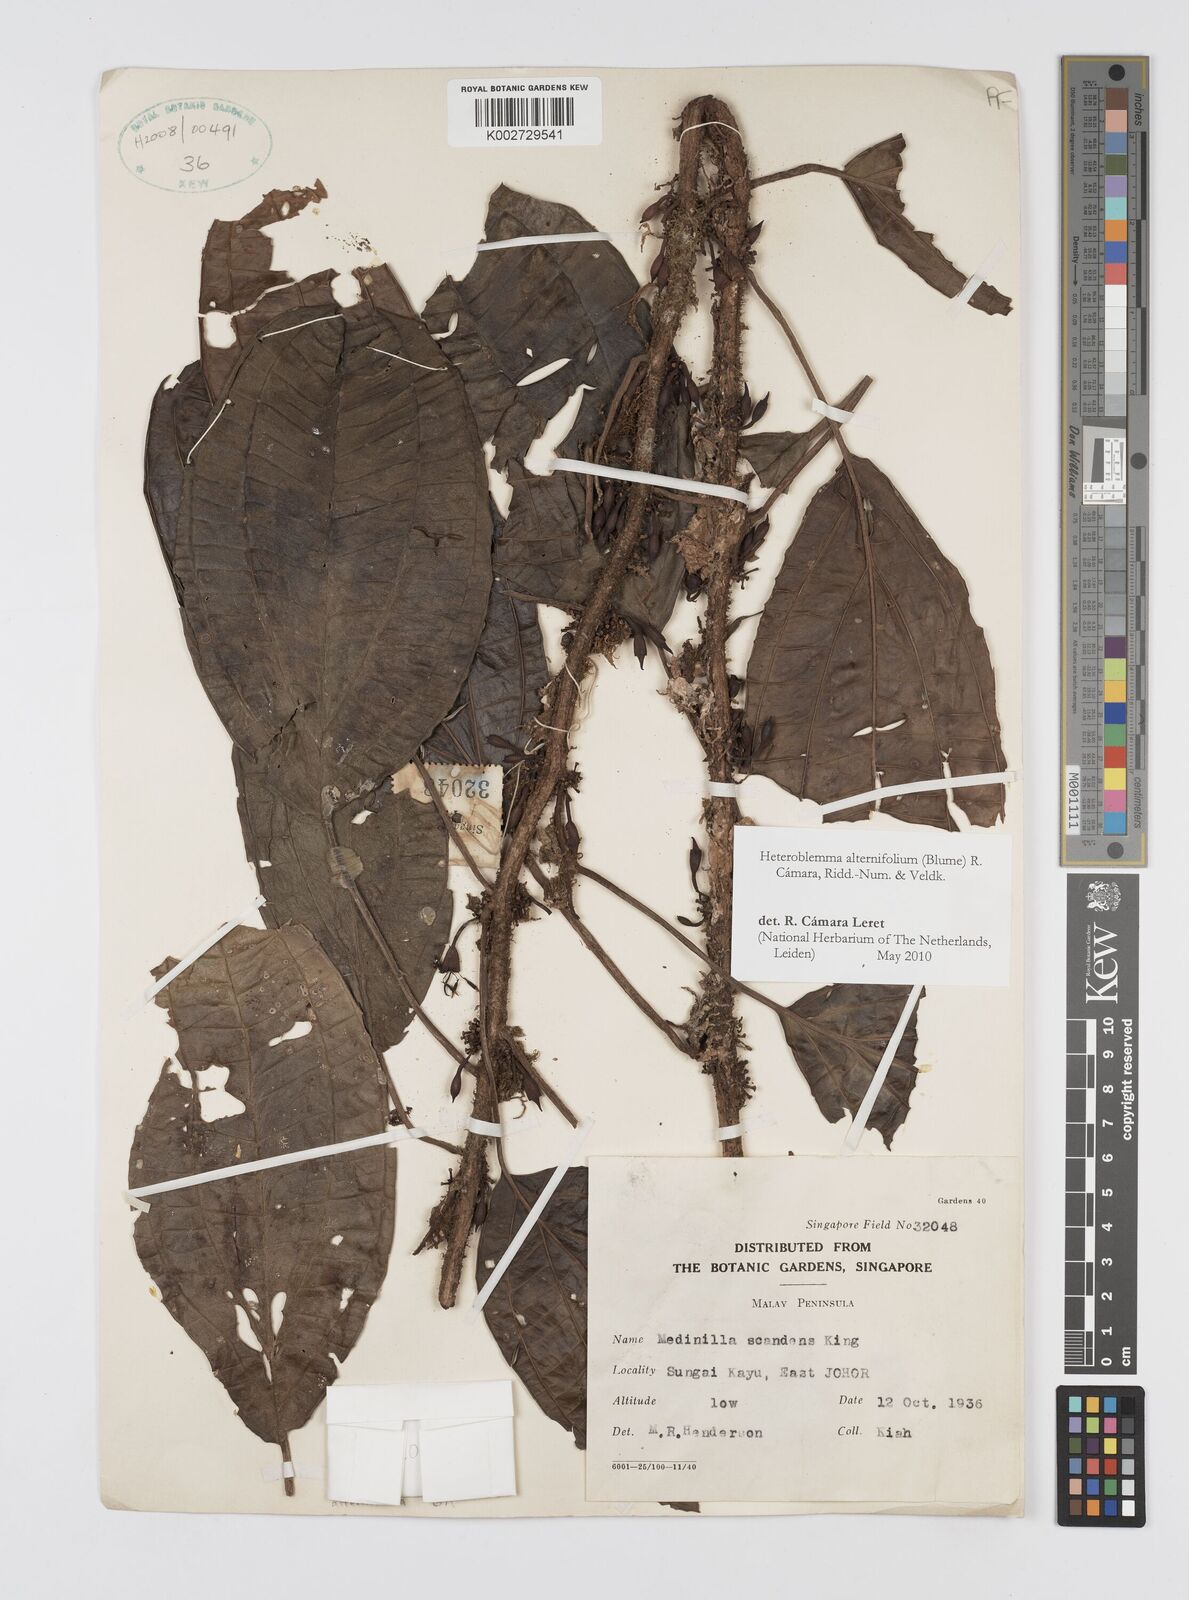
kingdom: Plantae
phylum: Tracheophyta
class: Magnoliopsida
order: Myrtales
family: Melastomataceae
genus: Heteroblemma
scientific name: Heteroblemma alternifolium
